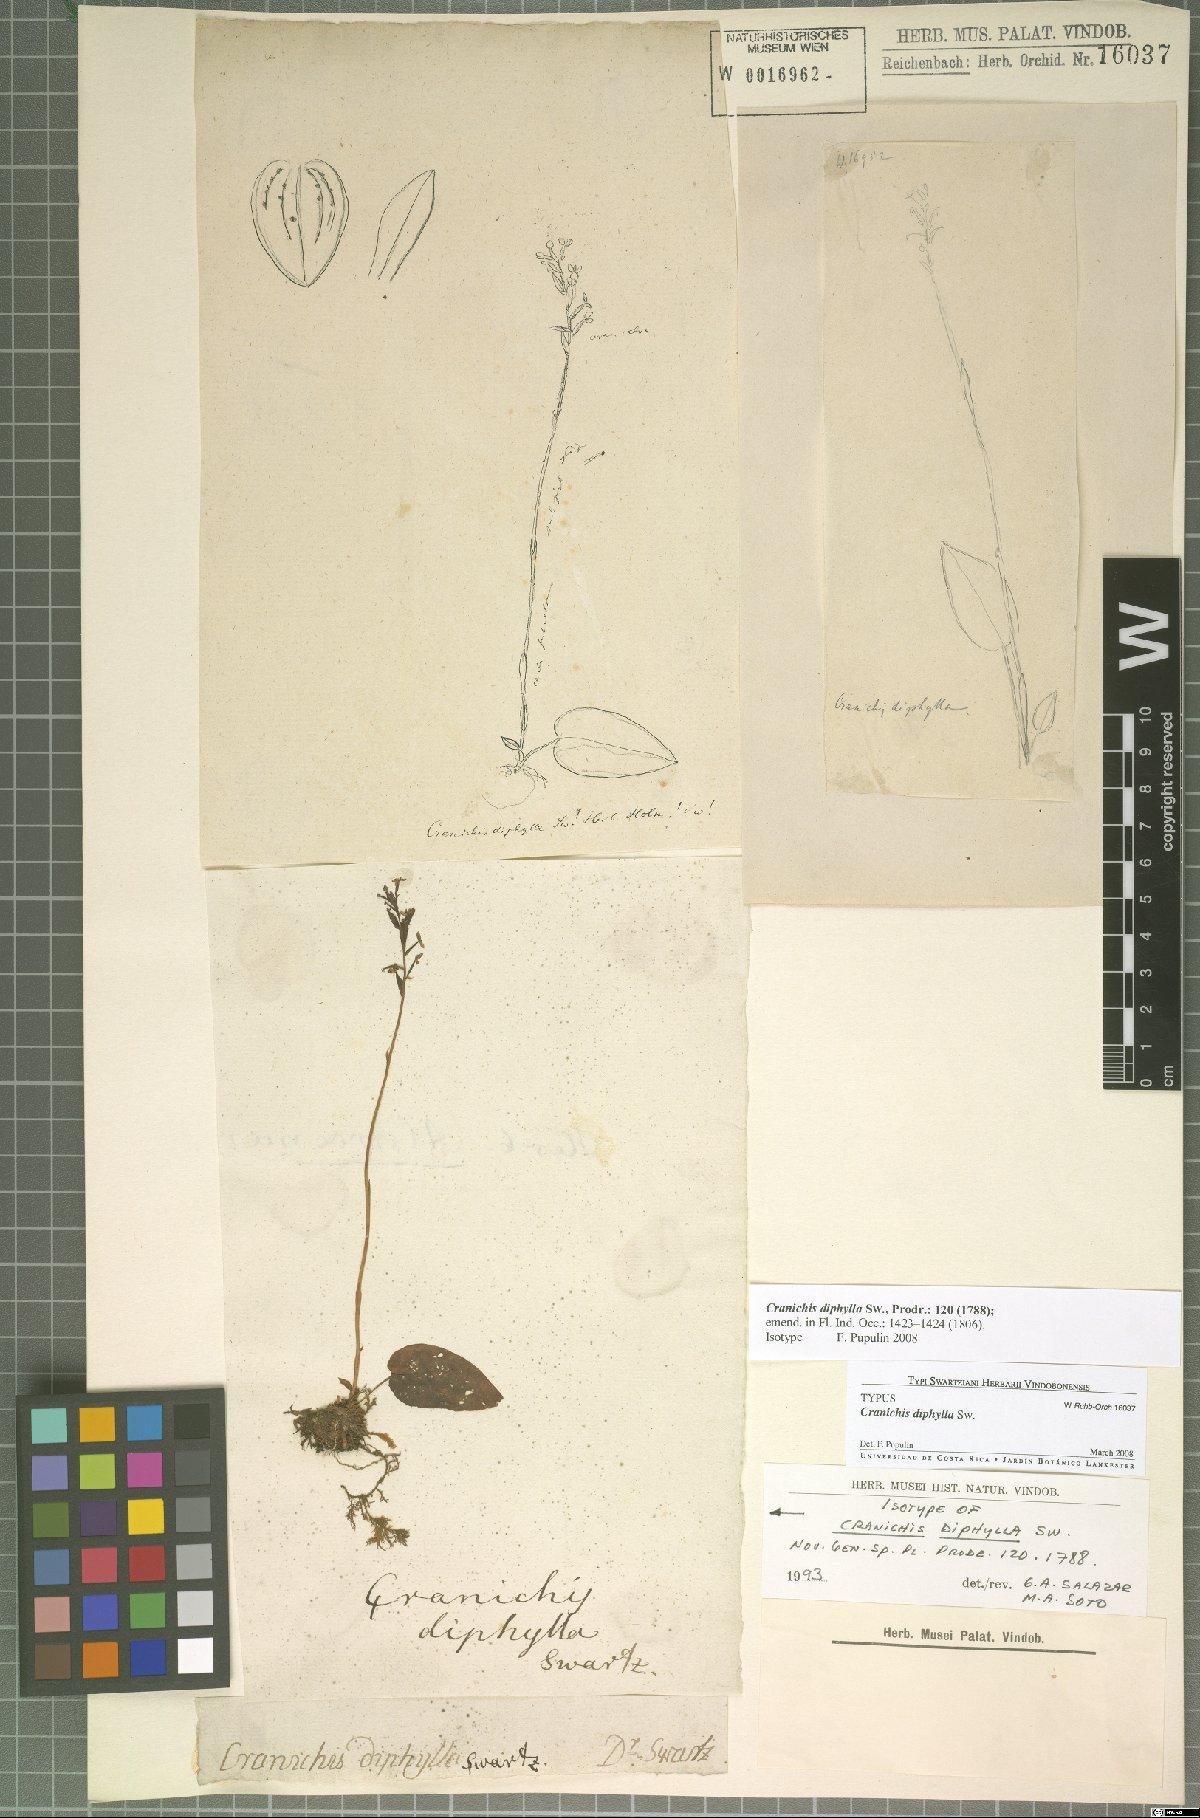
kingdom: Plantae
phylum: Tracheophyta
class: Liliopsida
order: Asparagales
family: Orchidaceae
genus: Cranichis
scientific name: Cranichis diphylla
